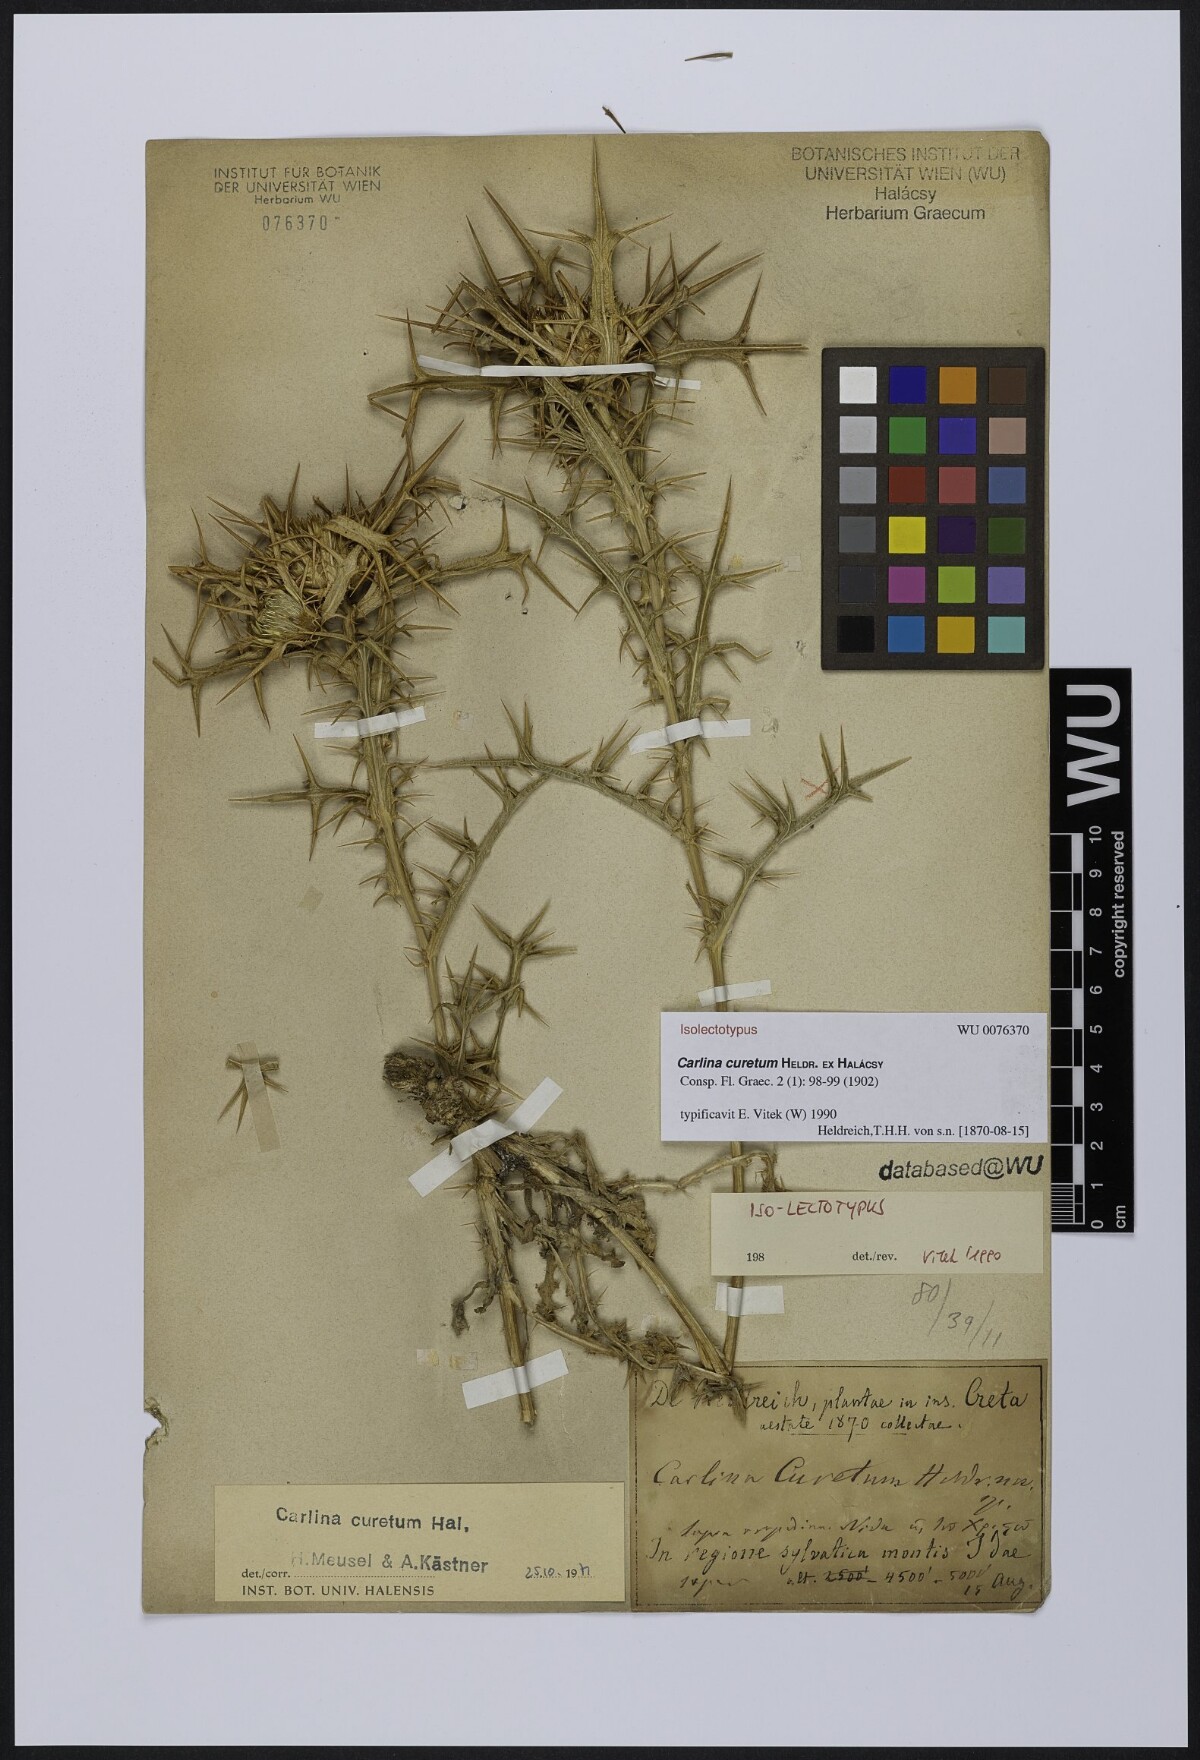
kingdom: Plantae
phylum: Tracheophyta
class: Magnoliopsida
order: Asterales
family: Asteraceae
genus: Carlina
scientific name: Carlina curetum
